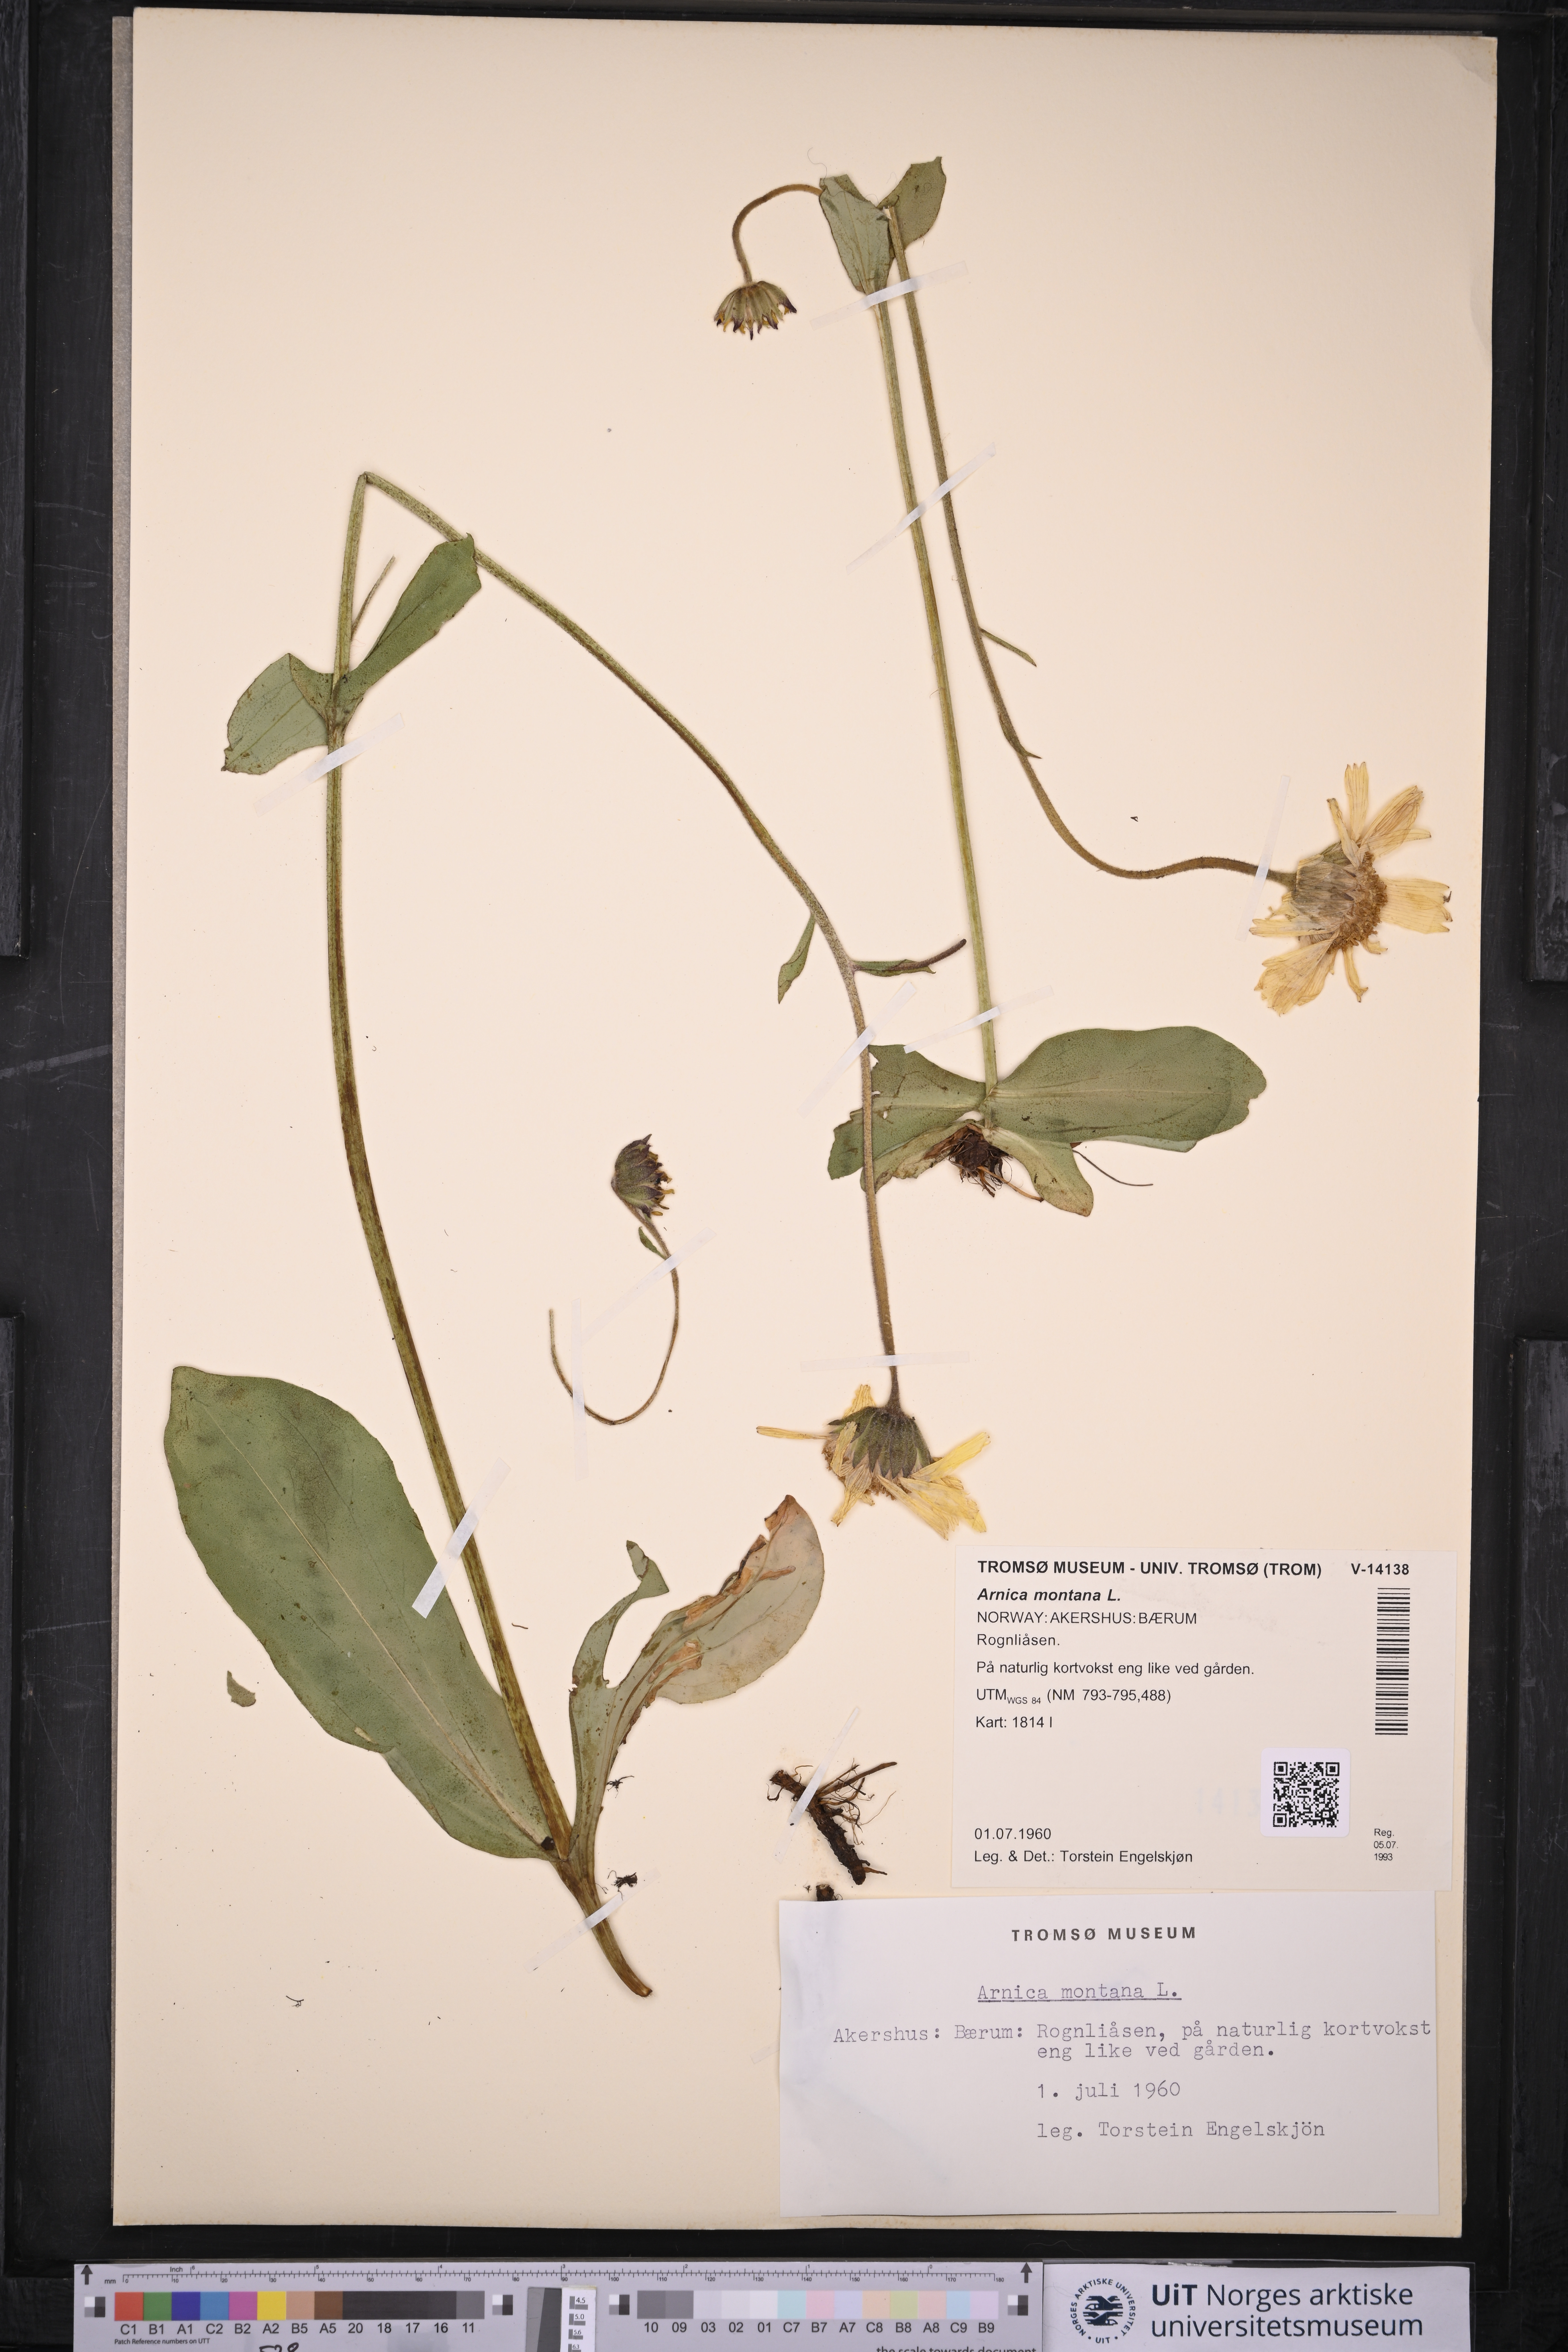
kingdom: Plantae
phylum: Tracheophyta
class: Magnoliopsida
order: Asterales
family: Asteraceae
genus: Arnica
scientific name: Arnica montana
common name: Leopard's bane
